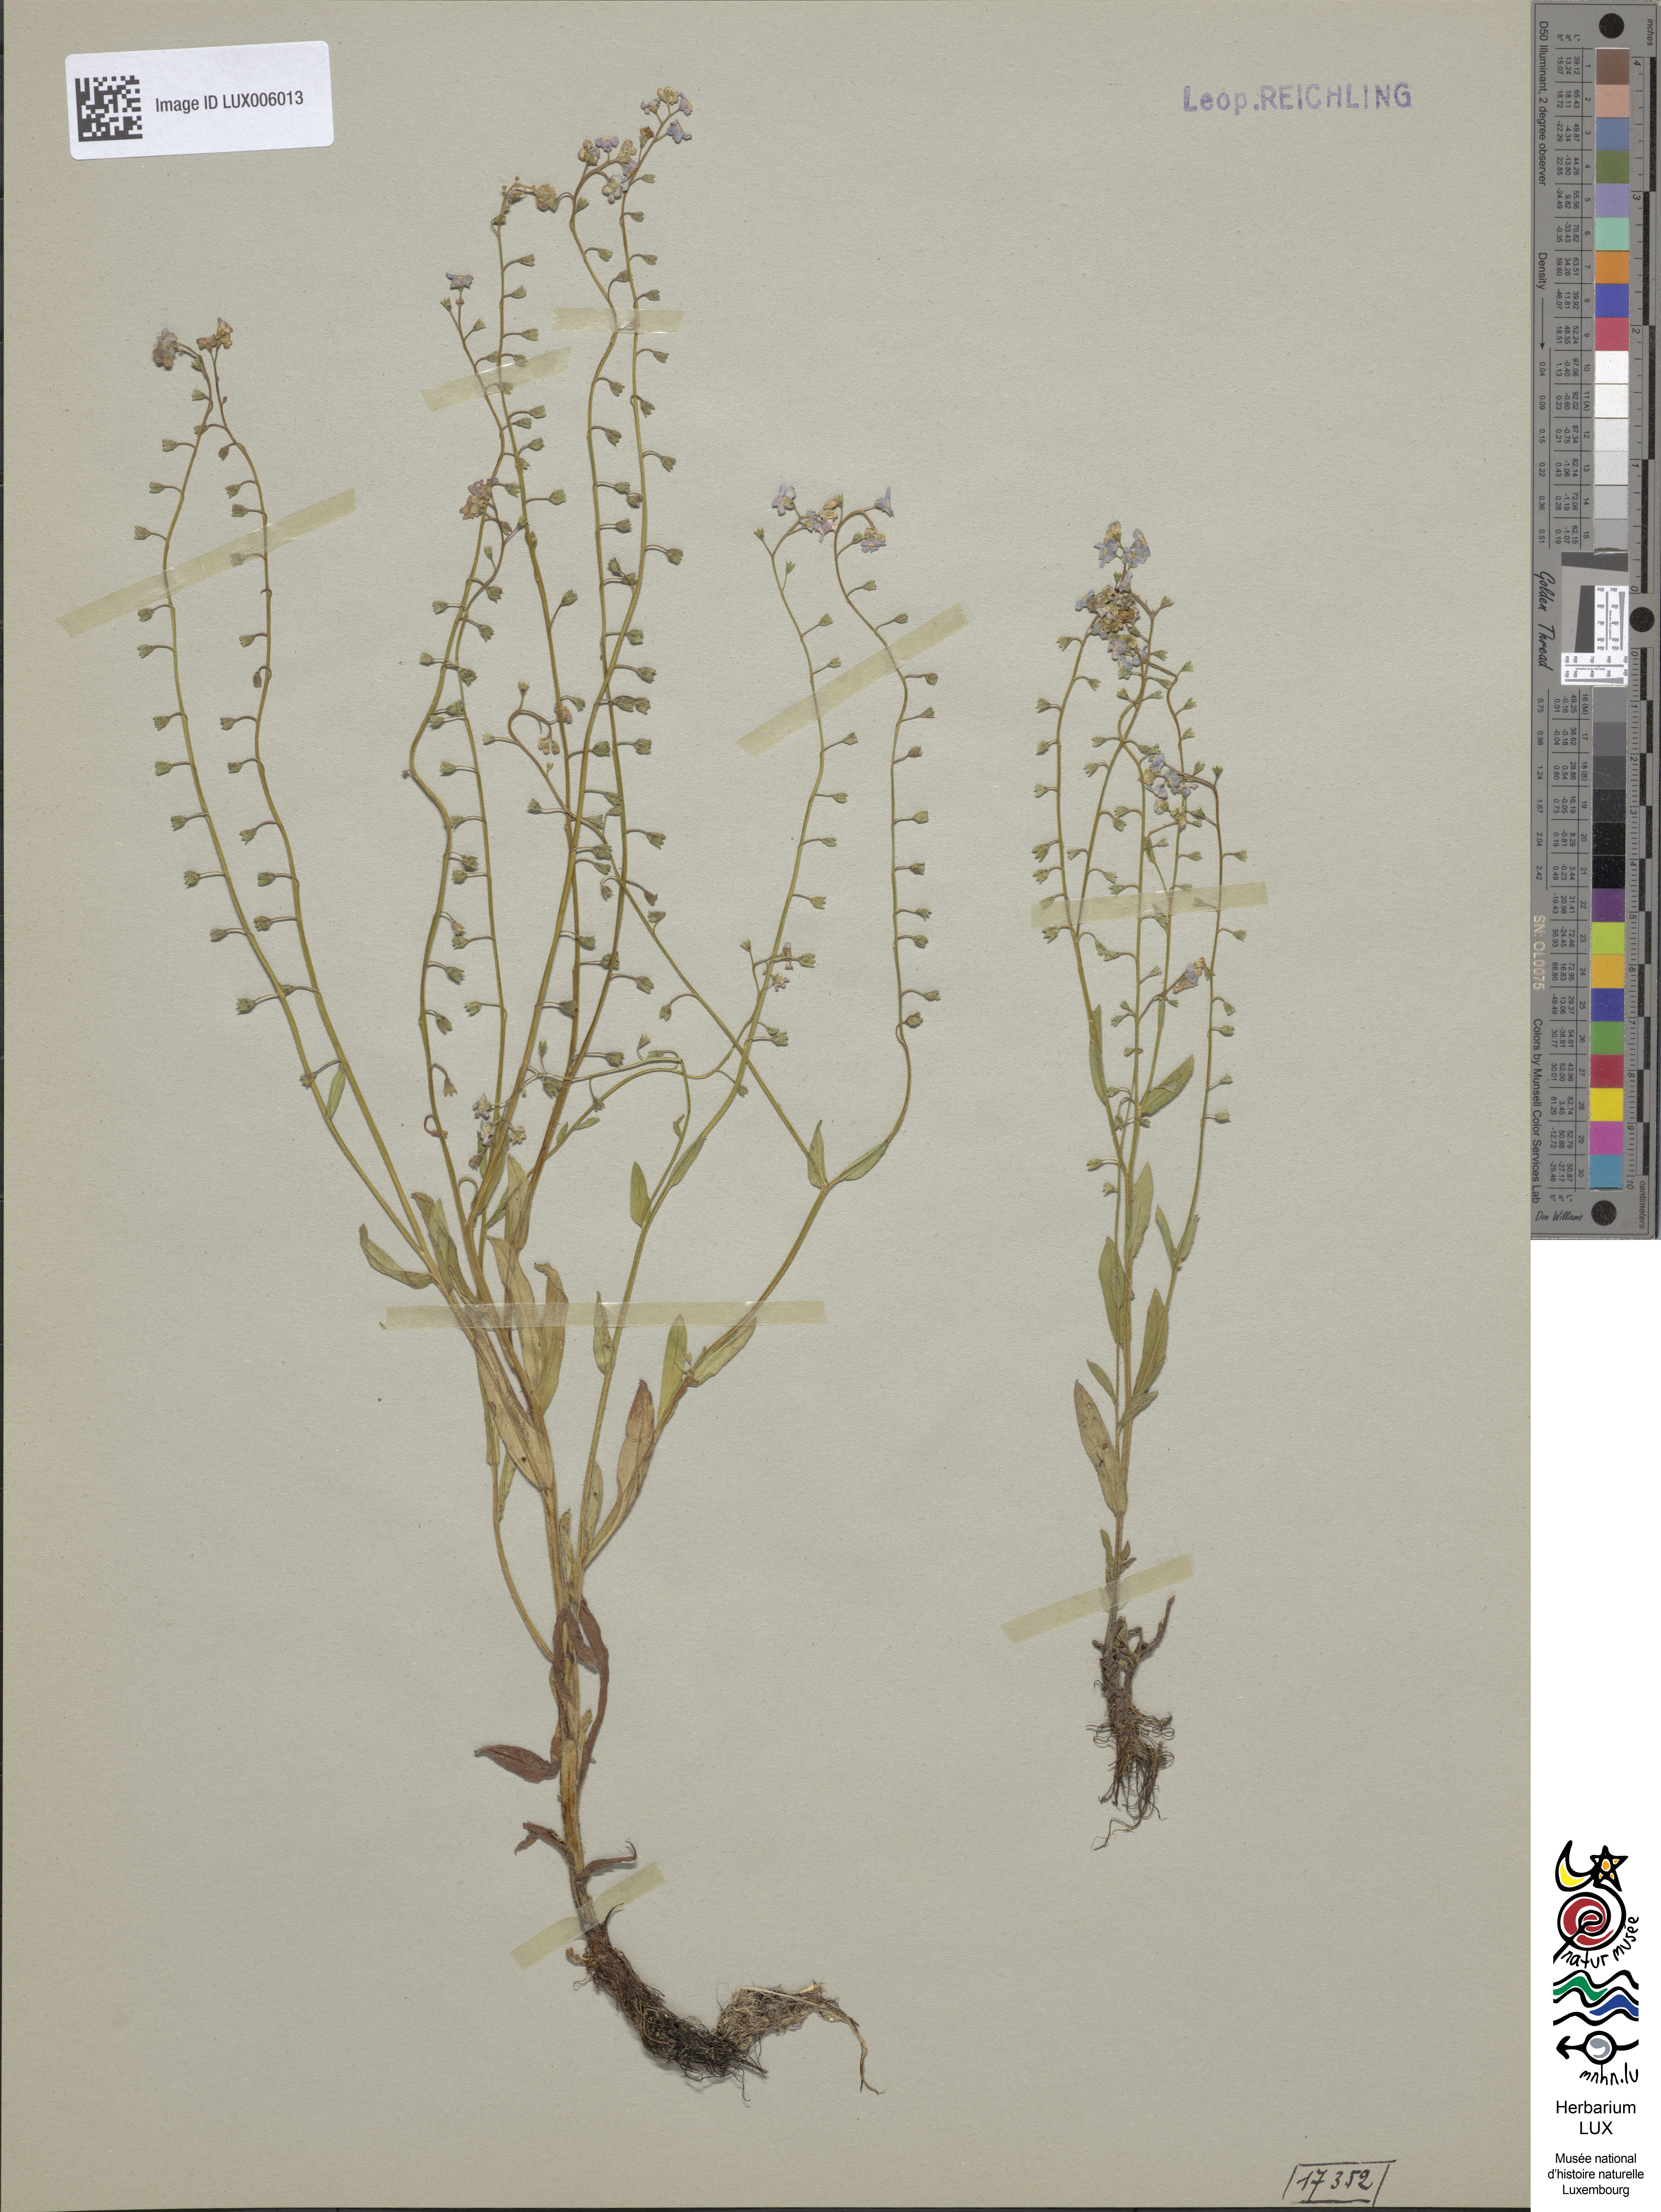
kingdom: Plantae
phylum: Tracheophyta
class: Magnoliopsida
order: Boraginales
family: Boraginaceae
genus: Myosotis
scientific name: Myosotis scorpioides
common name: Water forget-me-not
